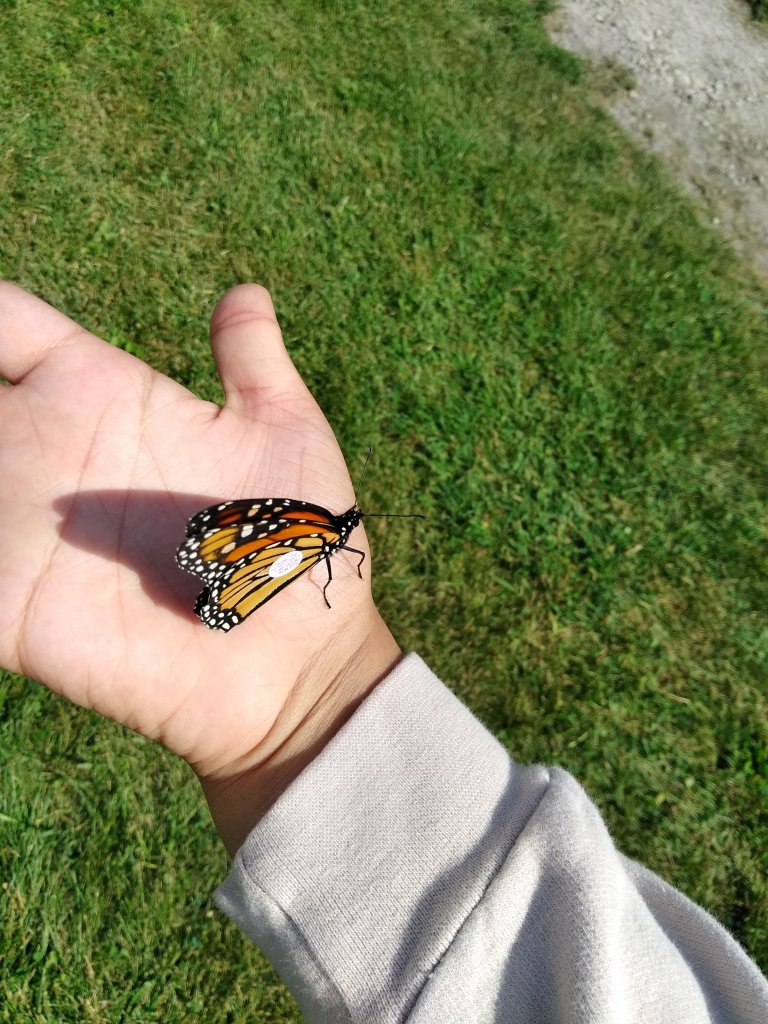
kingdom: Animalia
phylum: Arthropoda
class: Insecta
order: Lepidoptera
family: Nymphalidae
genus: Danaus
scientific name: Danaus plexippus
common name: Monarch
